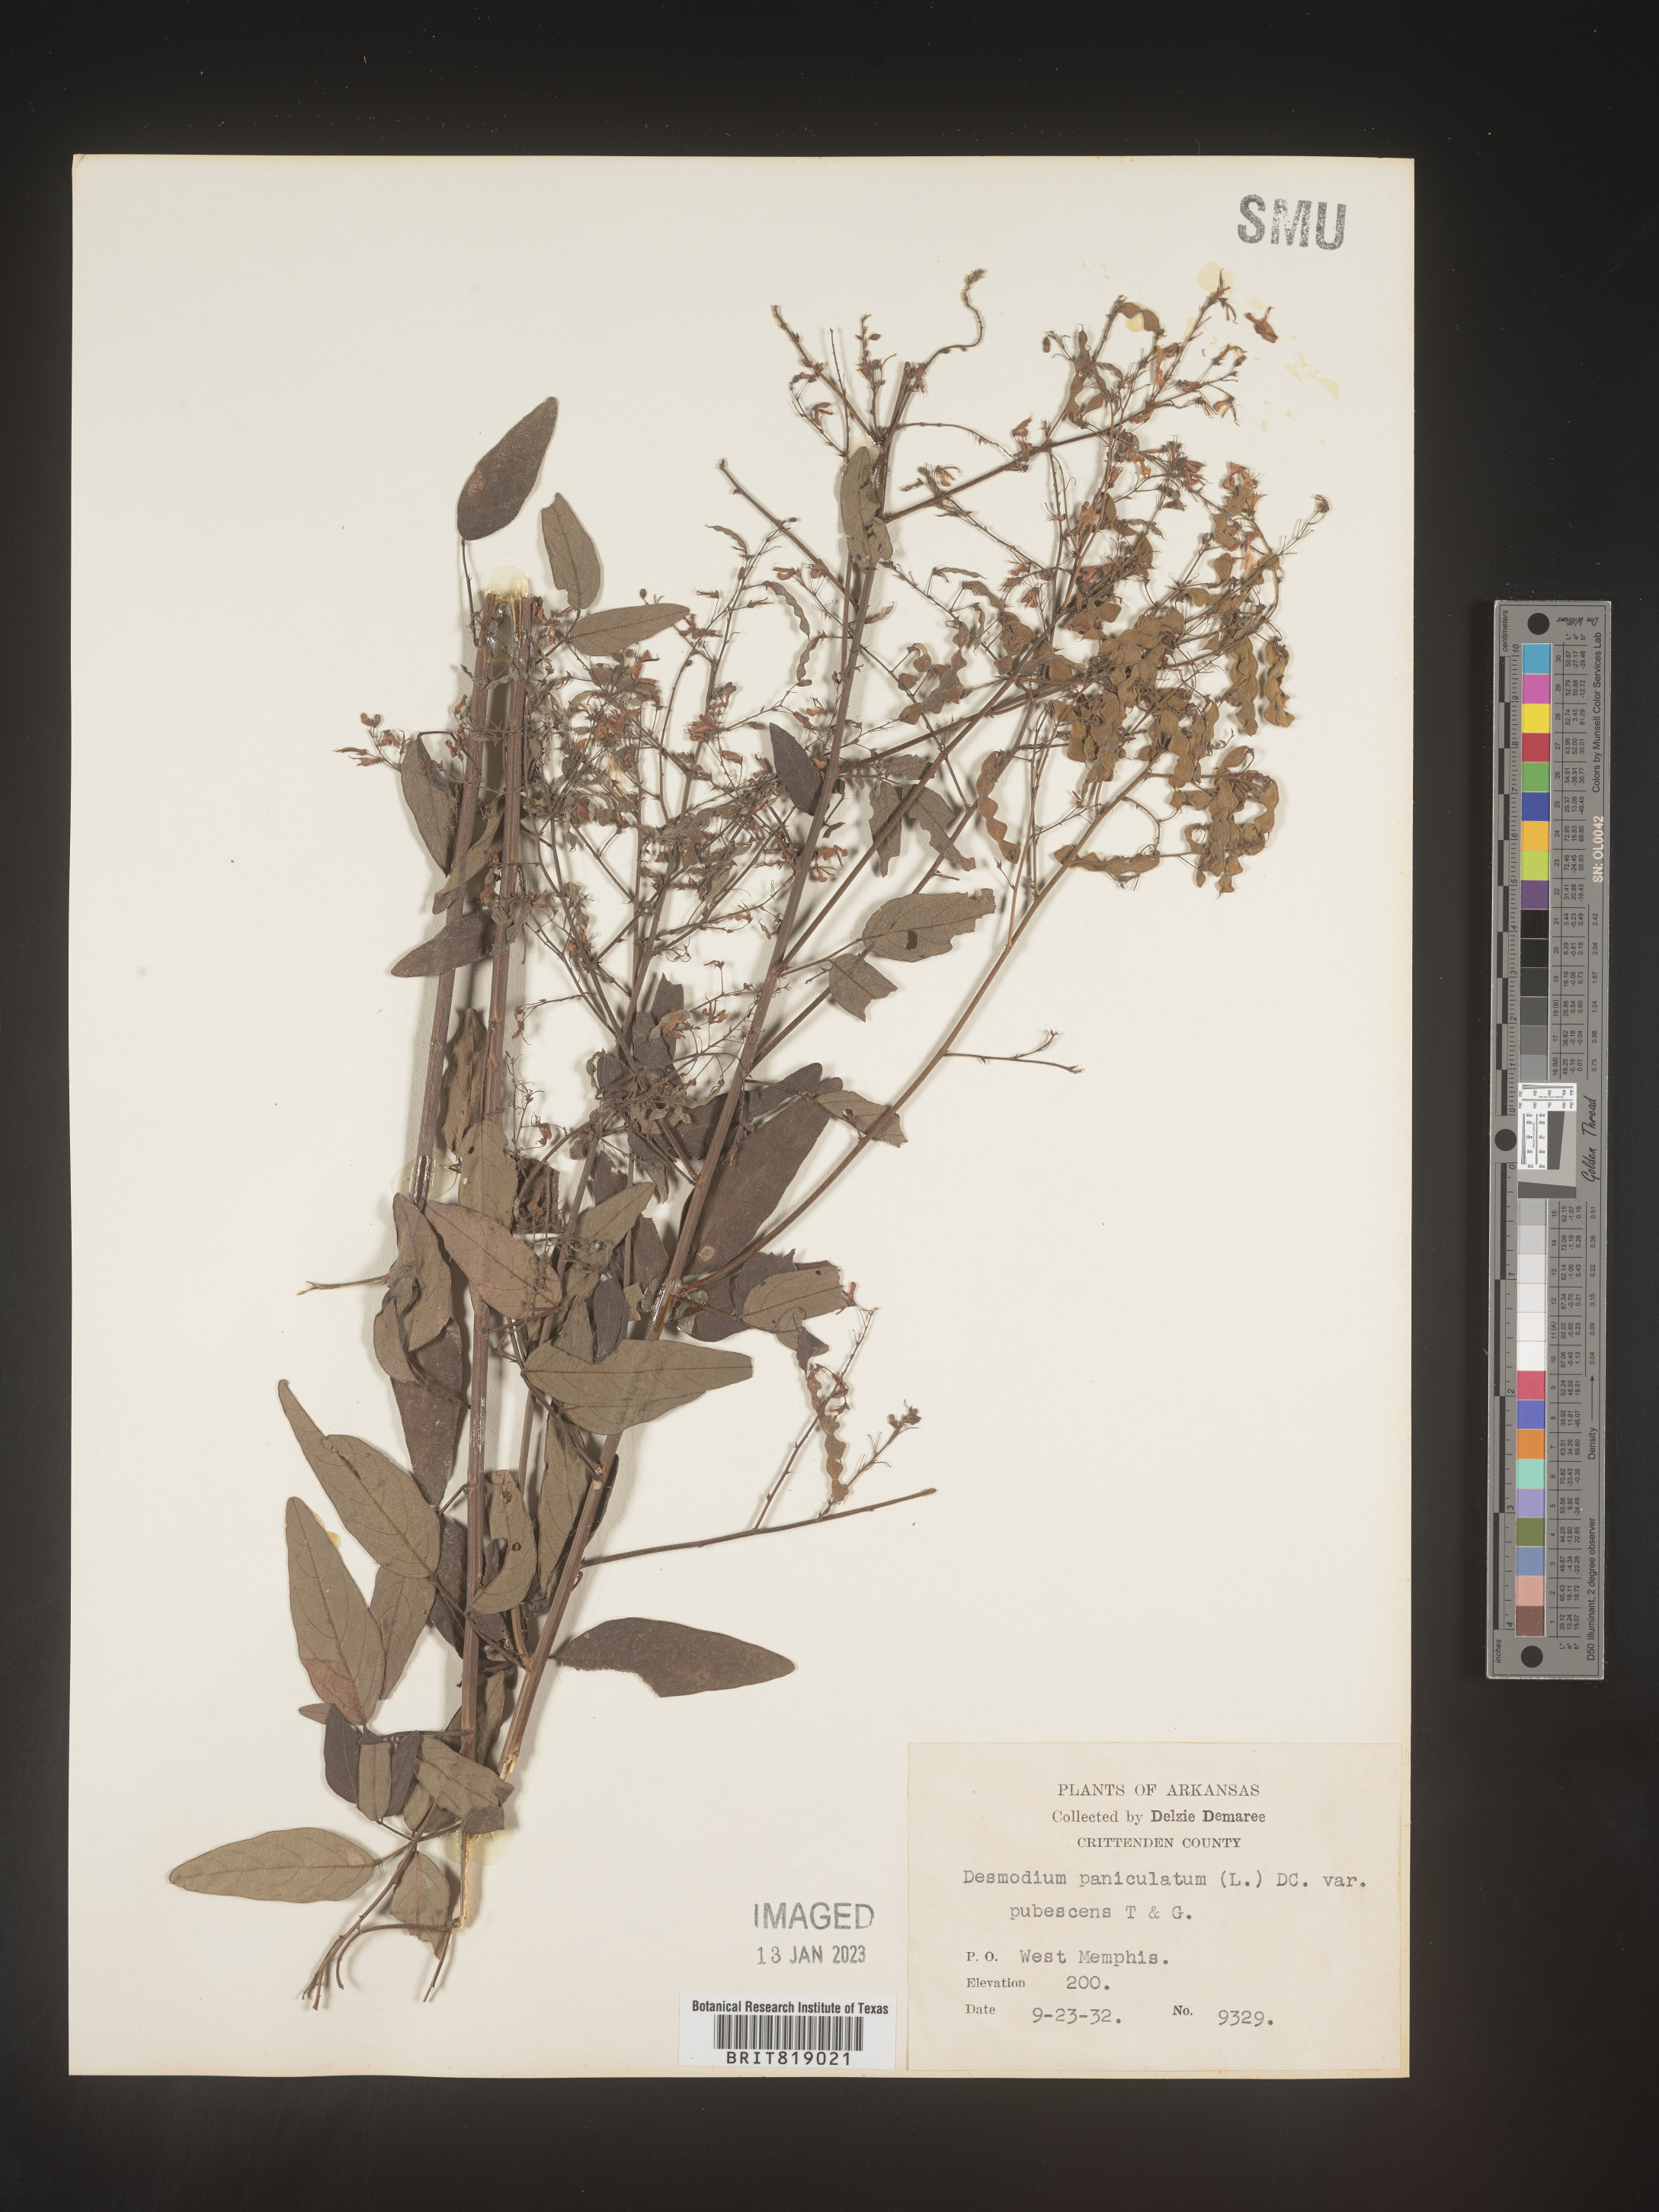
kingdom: Plantae
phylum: Tracheophyta
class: Magnoliopsida
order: Fabales
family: Fabaceae
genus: Desmodium
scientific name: Desmodium paniculatum
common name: Panicled tick-clover
